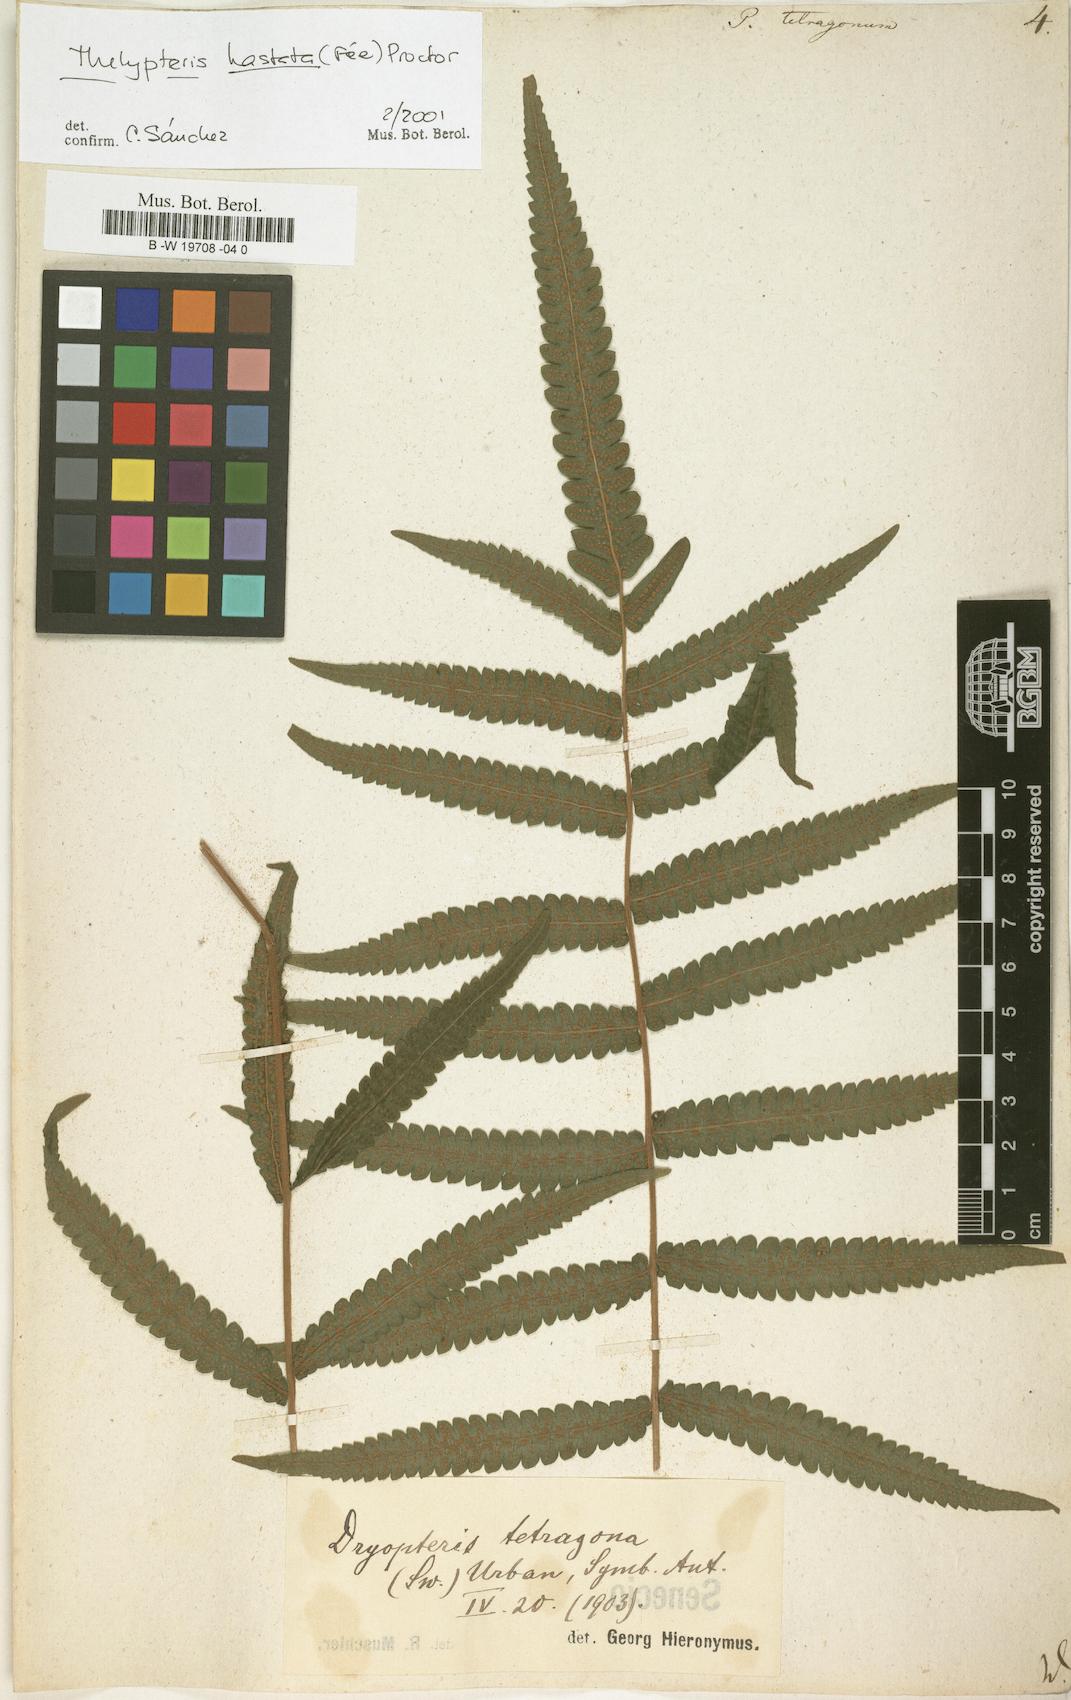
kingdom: Plantae
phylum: Tracheophyta
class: Polypodiopsida
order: Polypodiales
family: Thelypteridaceae
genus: Goniopteris
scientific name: Goniopteris tetragona
